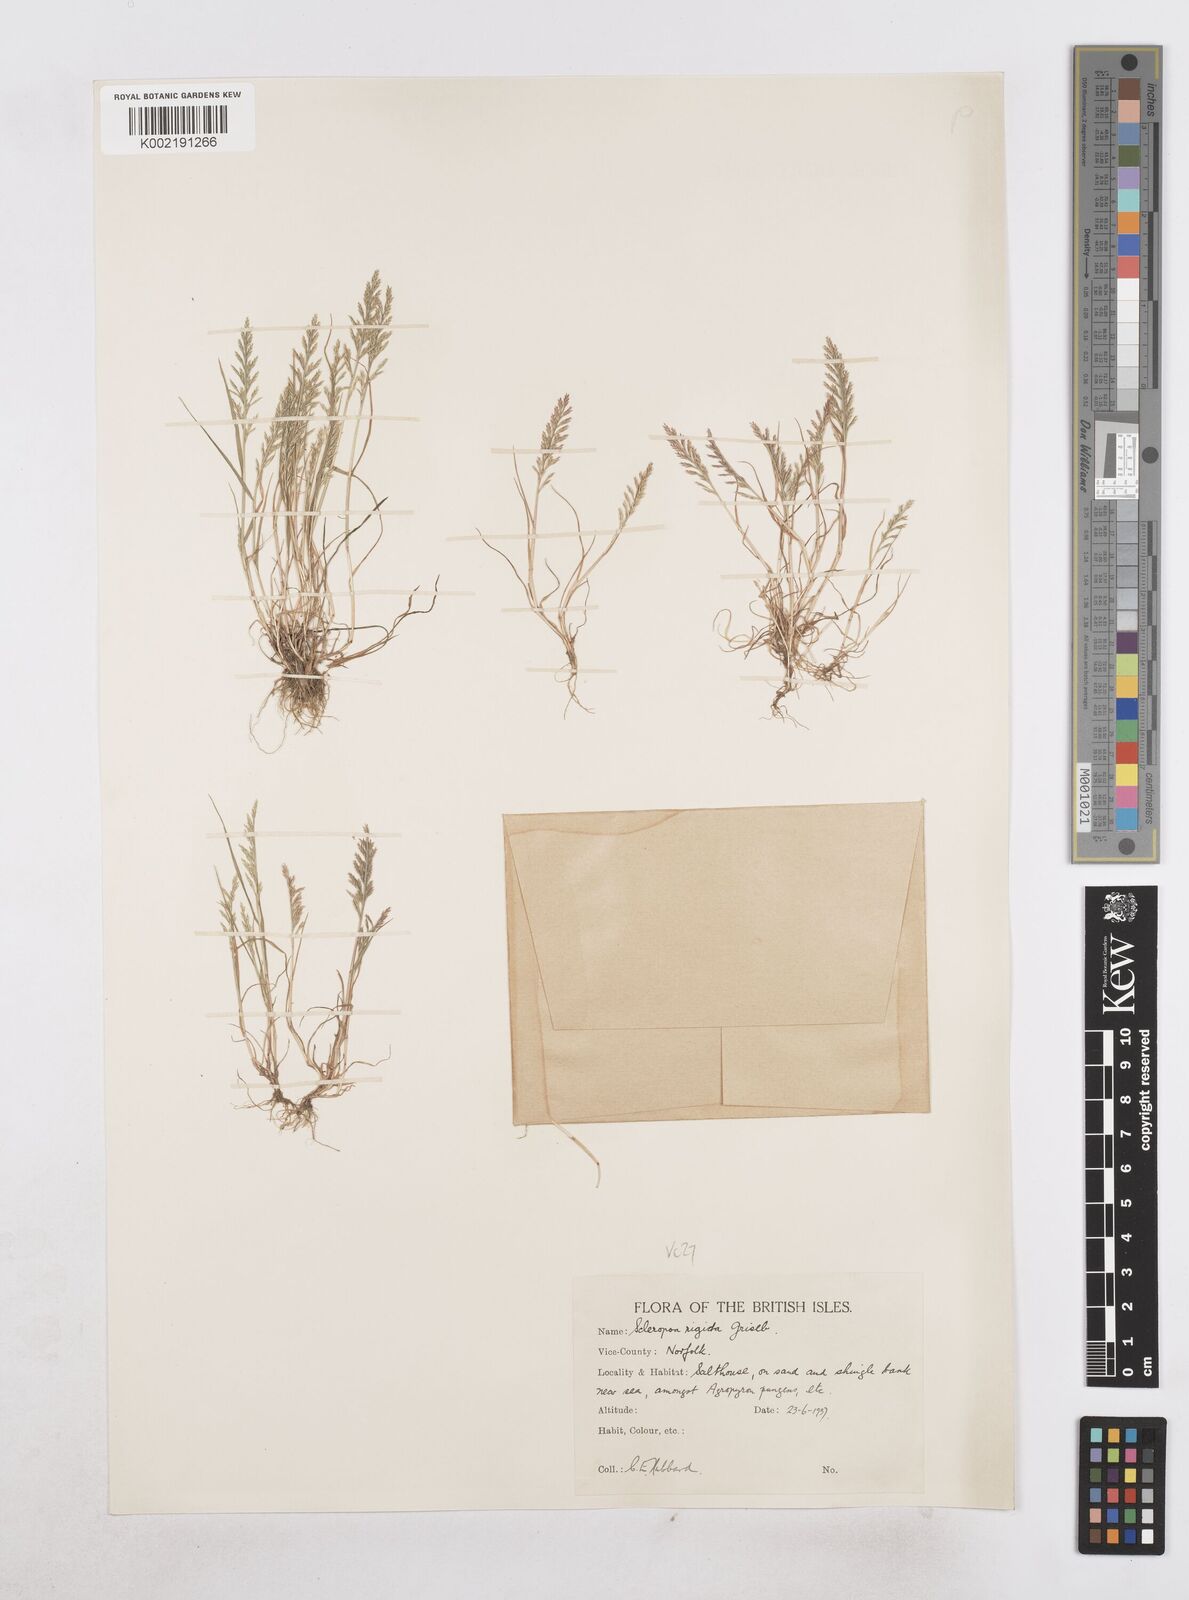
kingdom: Plantae
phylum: Tracheophyta
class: Liliopsida
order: Poales
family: Poaceae
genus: Catapodium
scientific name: Catapodium rigidum
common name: Fern-grass
